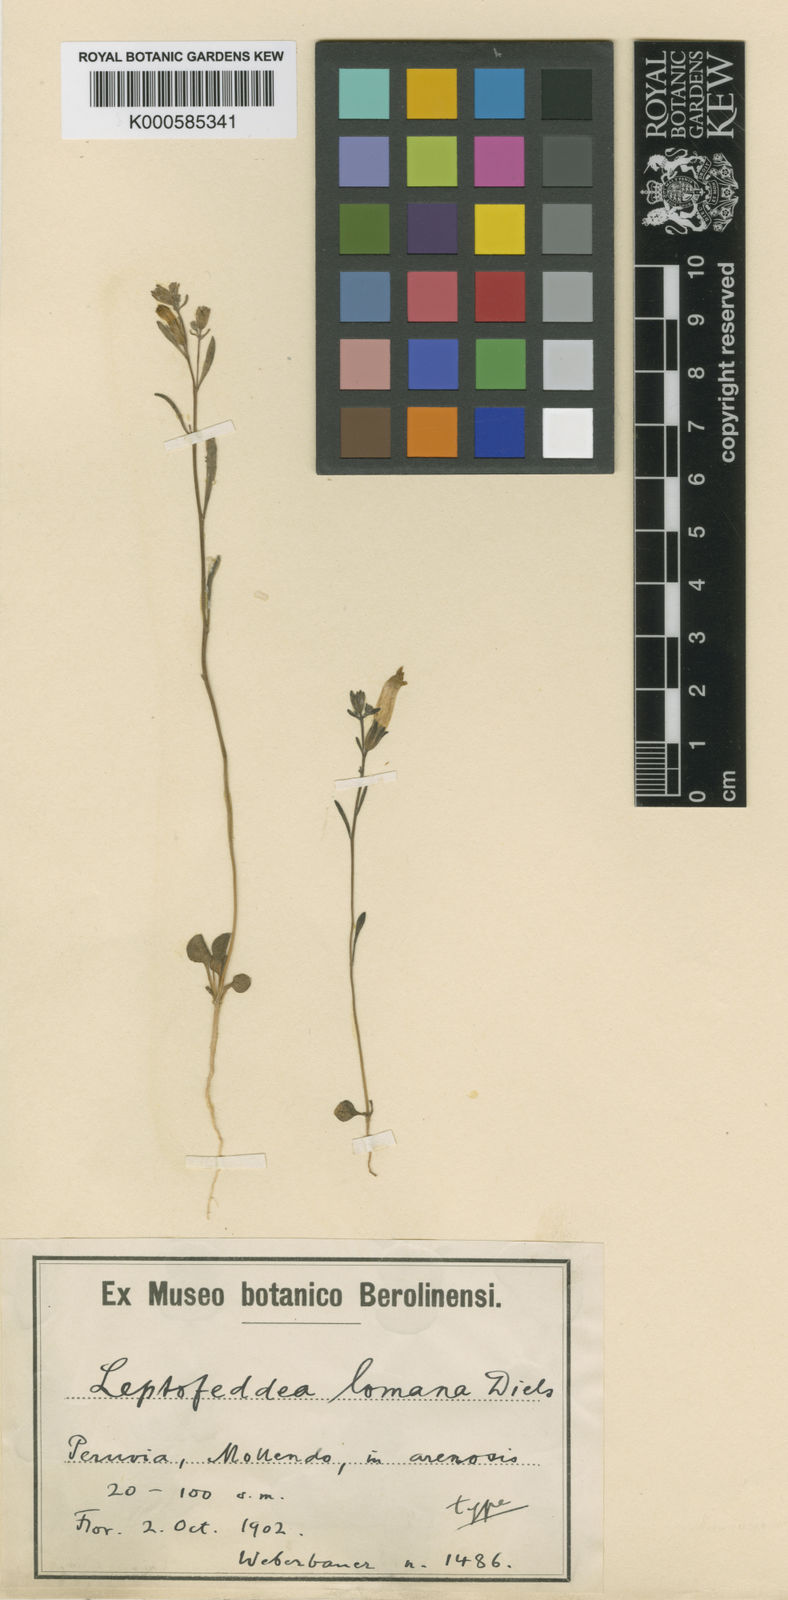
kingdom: Plantae
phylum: Tracheophyta
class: Magnoliopsida
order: Solanales
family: Solanaceae
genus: Leptoglossis
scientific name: Leptoglossis lomana
